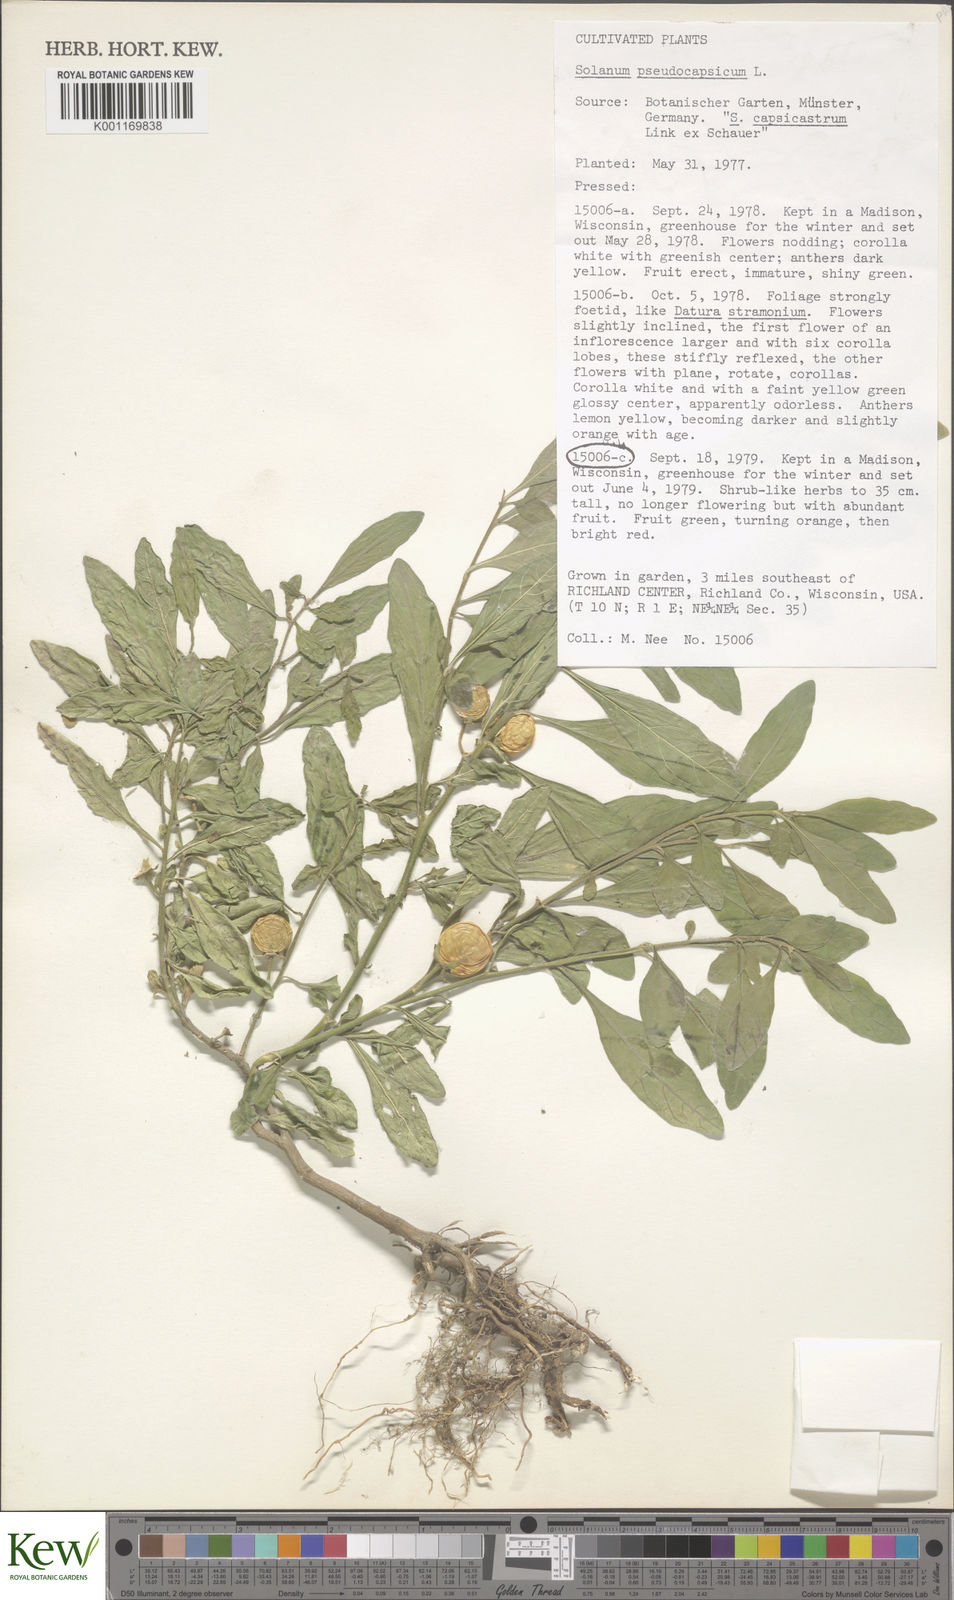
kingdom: Plantae
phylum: Tracheophyta
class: Magnoliopsida
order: Solanales
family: Solanaceae
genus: Solanum
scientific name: Solanum pseudocapsicum
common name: Jerusalem cherry
